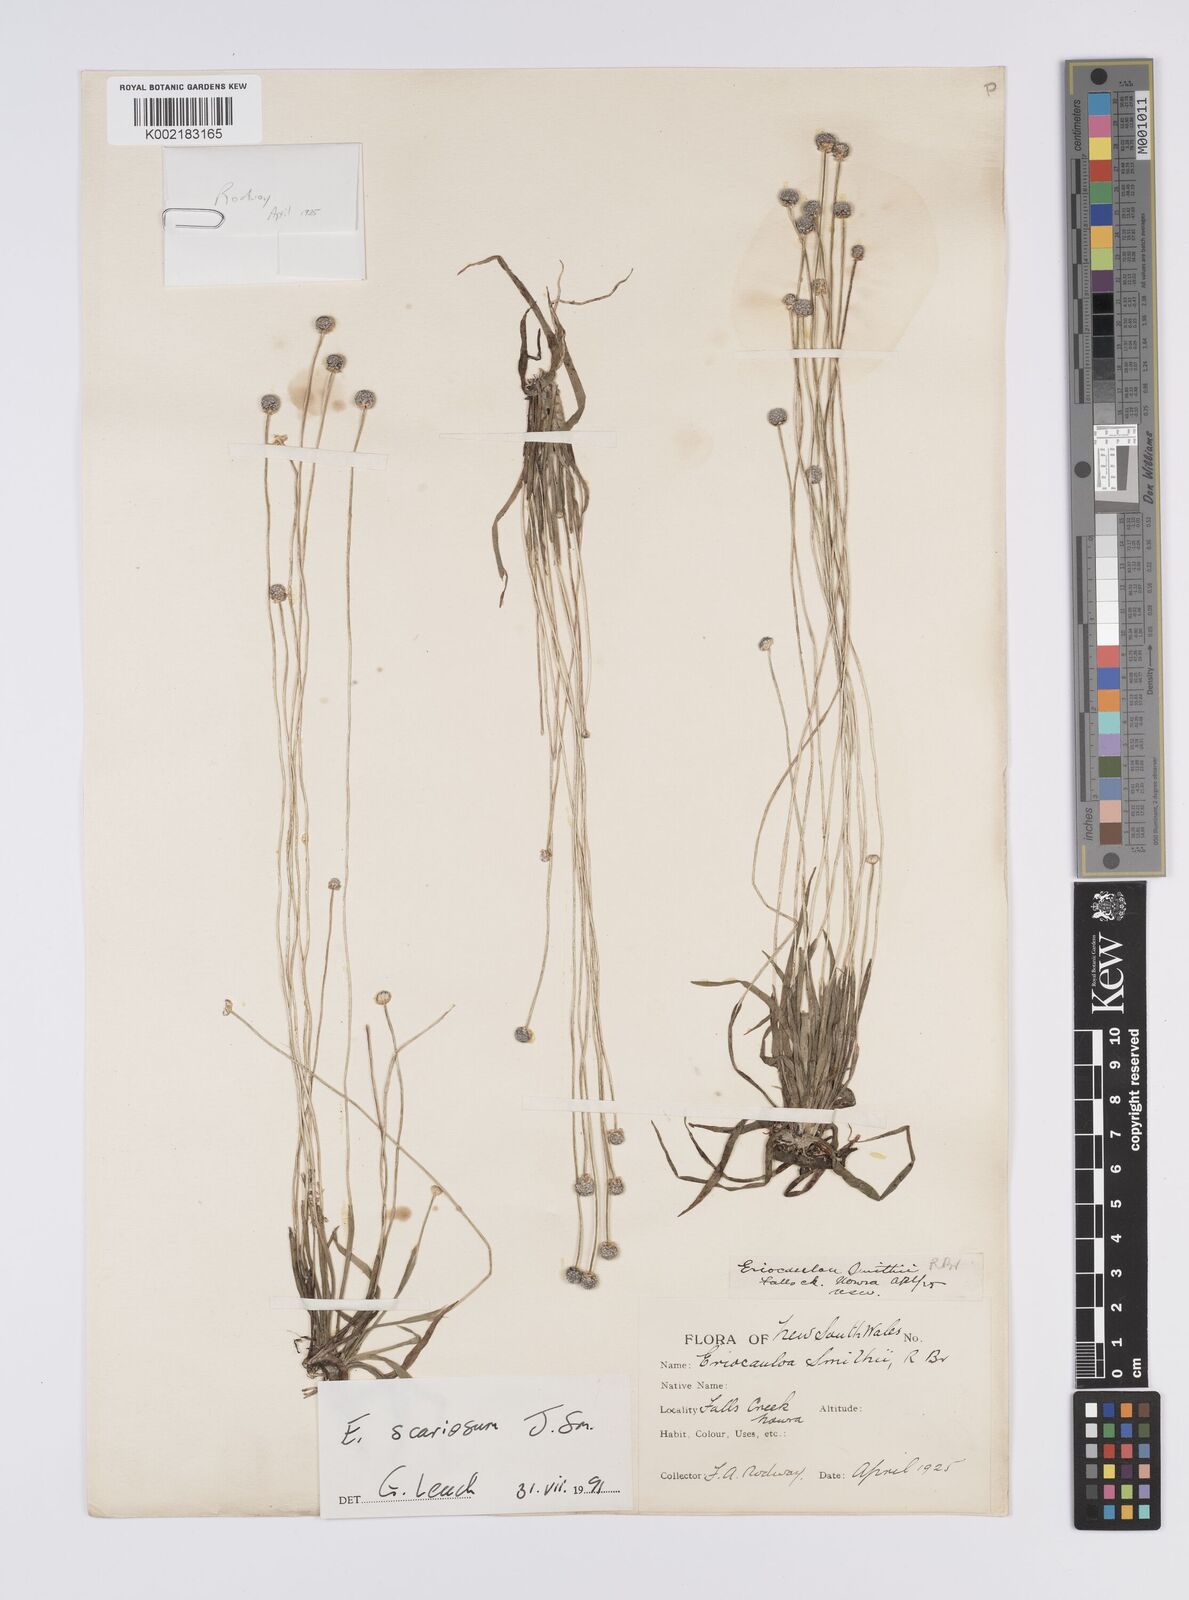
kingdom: Plantae
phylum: Tracheophyta
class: Liliopsida
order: Poales
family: Eriocaulaceae
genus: Eriocaulon
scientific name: Eriocaulon scariosum
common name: Rough pipewort
